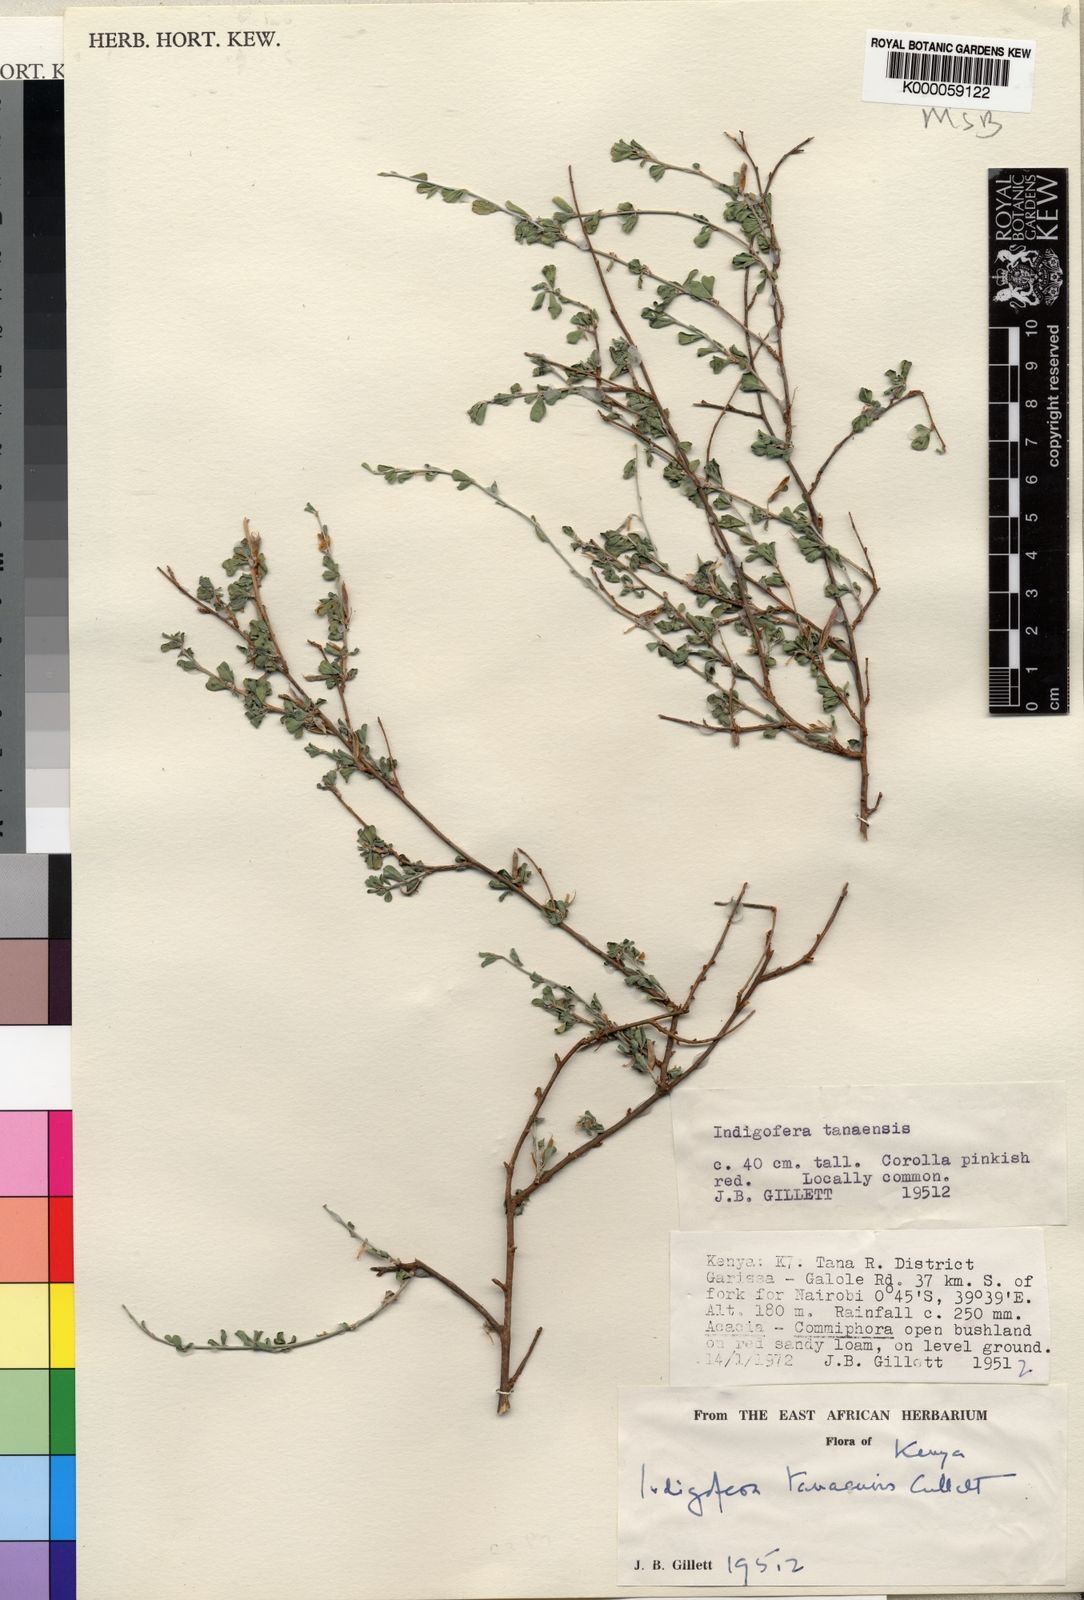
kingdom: Plantae
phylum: Tracheophyta
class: Magnoliopsida
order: Fabales
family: Fabaceae
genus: Indigofera
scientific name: Indigofera tanaensis
